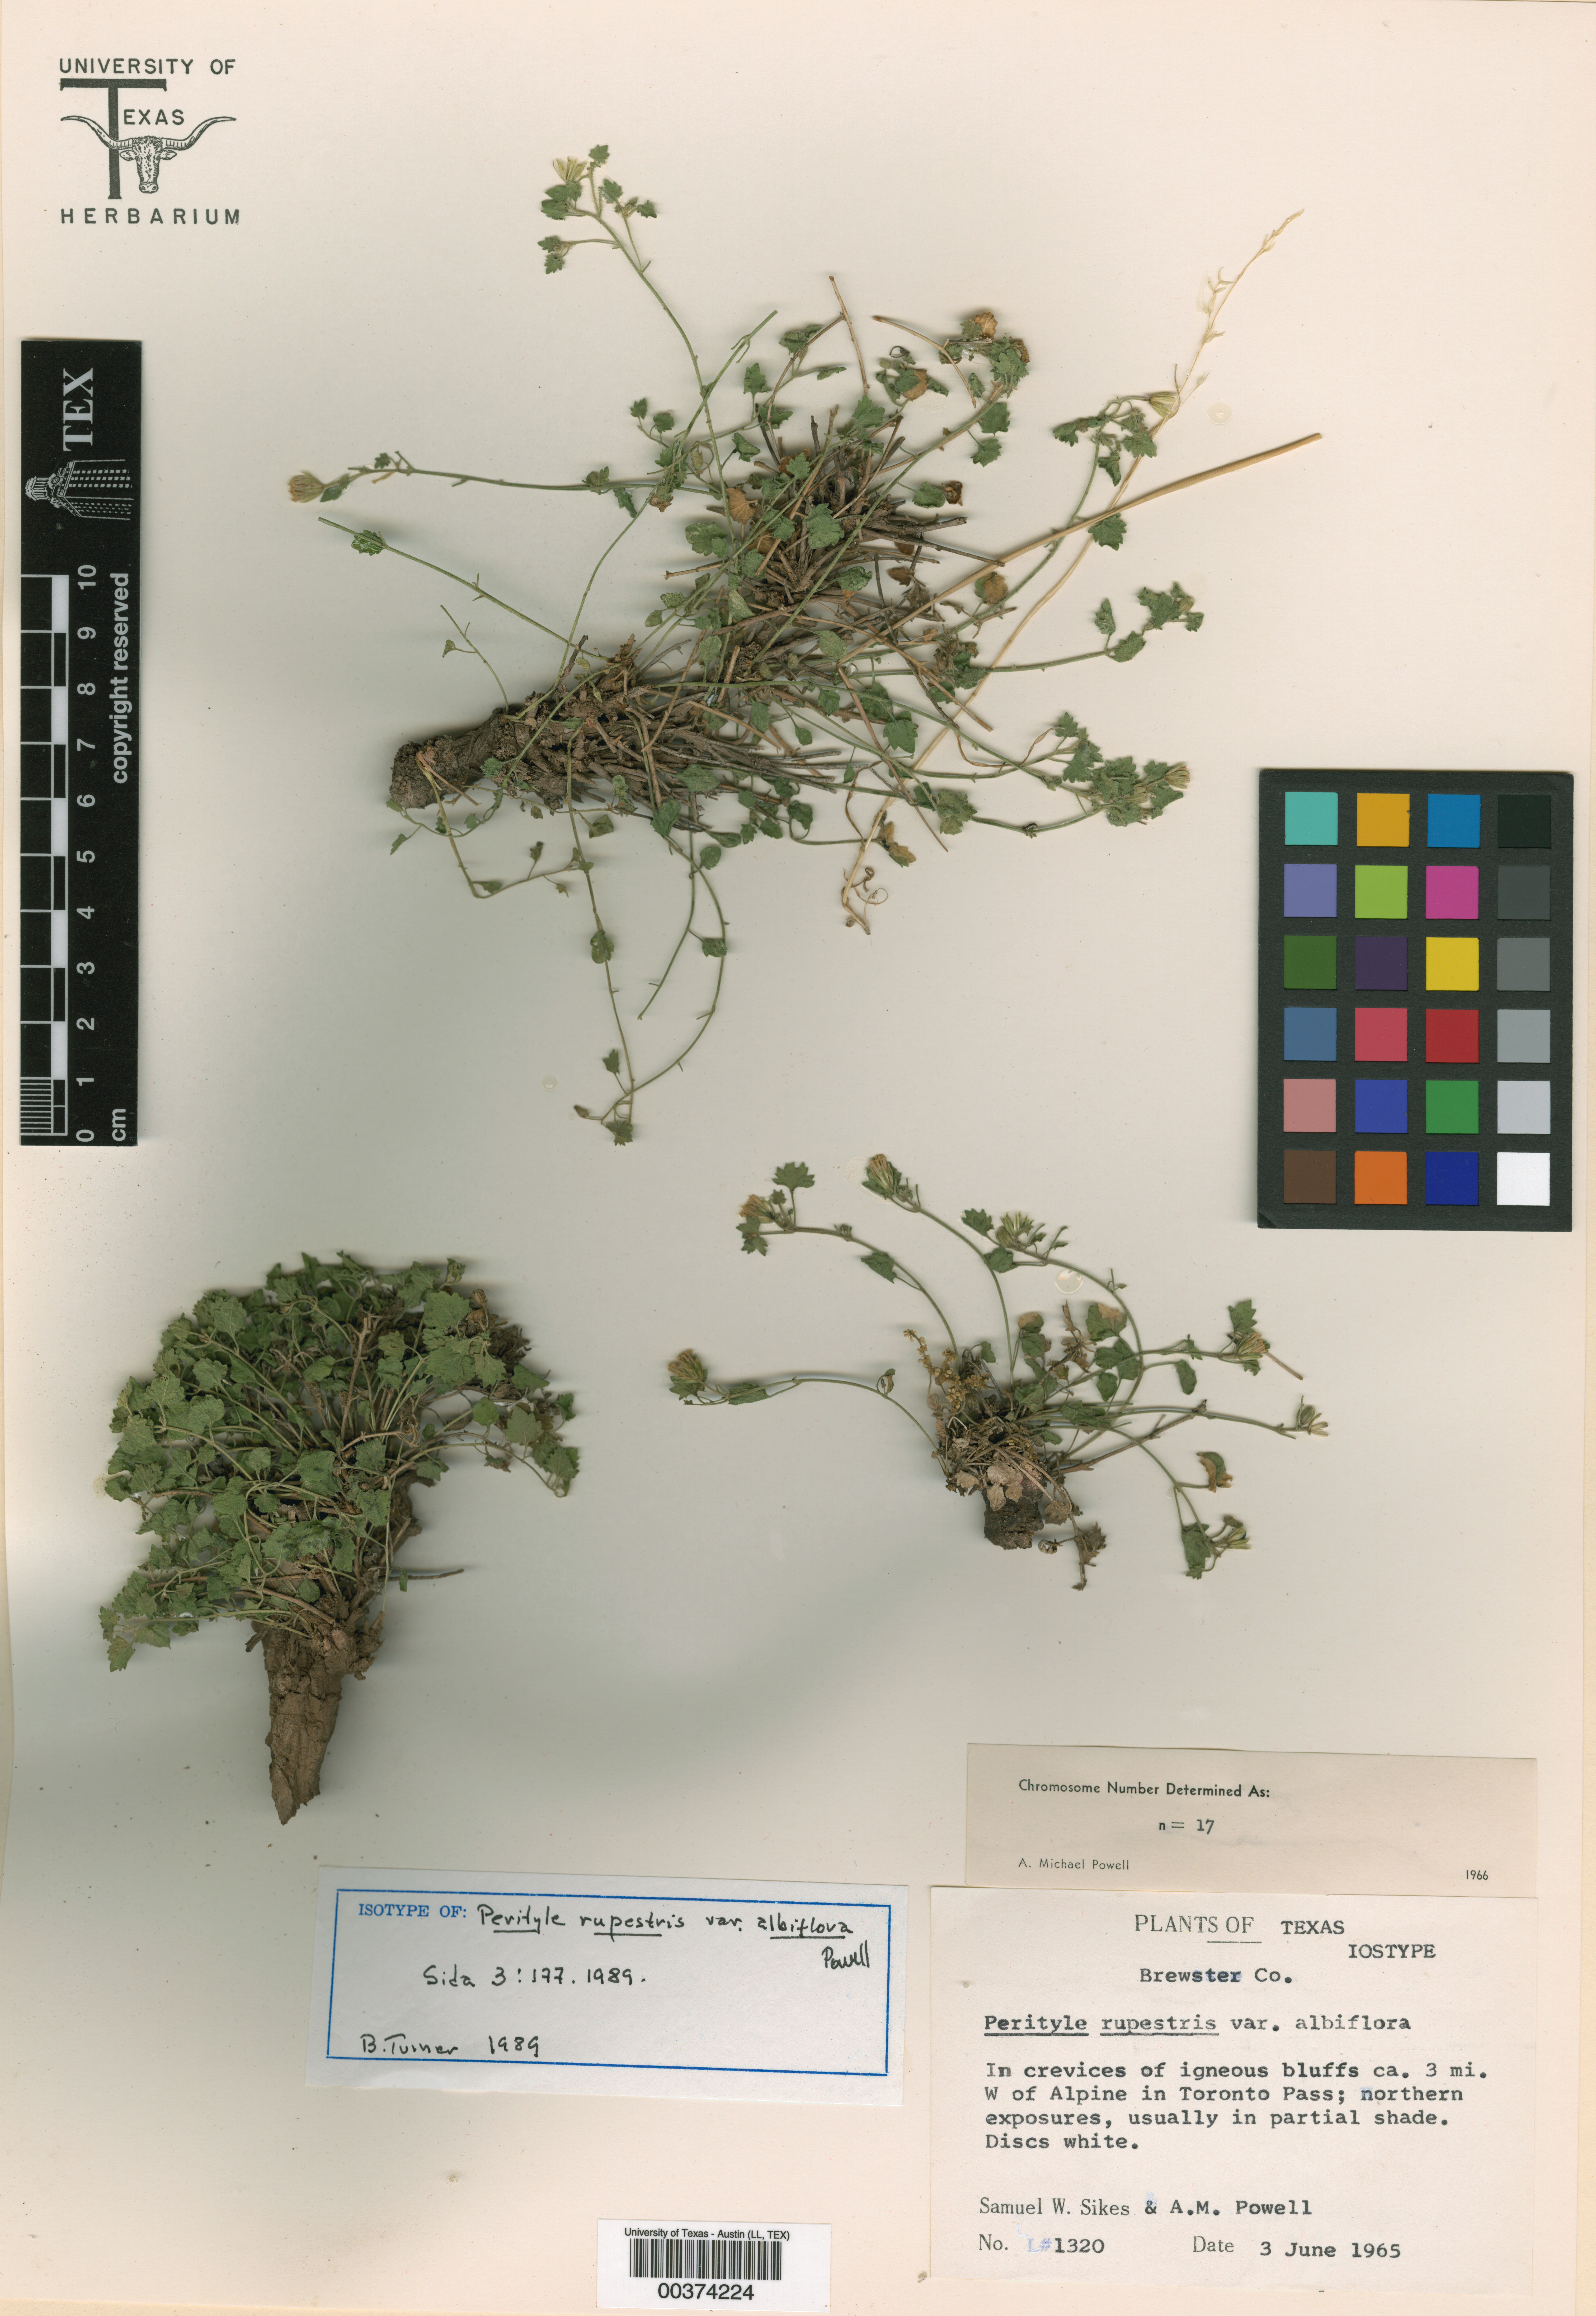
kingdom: Plantae
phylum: Tracheophyta
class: Magnoliopsida
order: Asterales
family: Asteraceae
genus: Laphamia
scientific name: Laphamia rupestris
